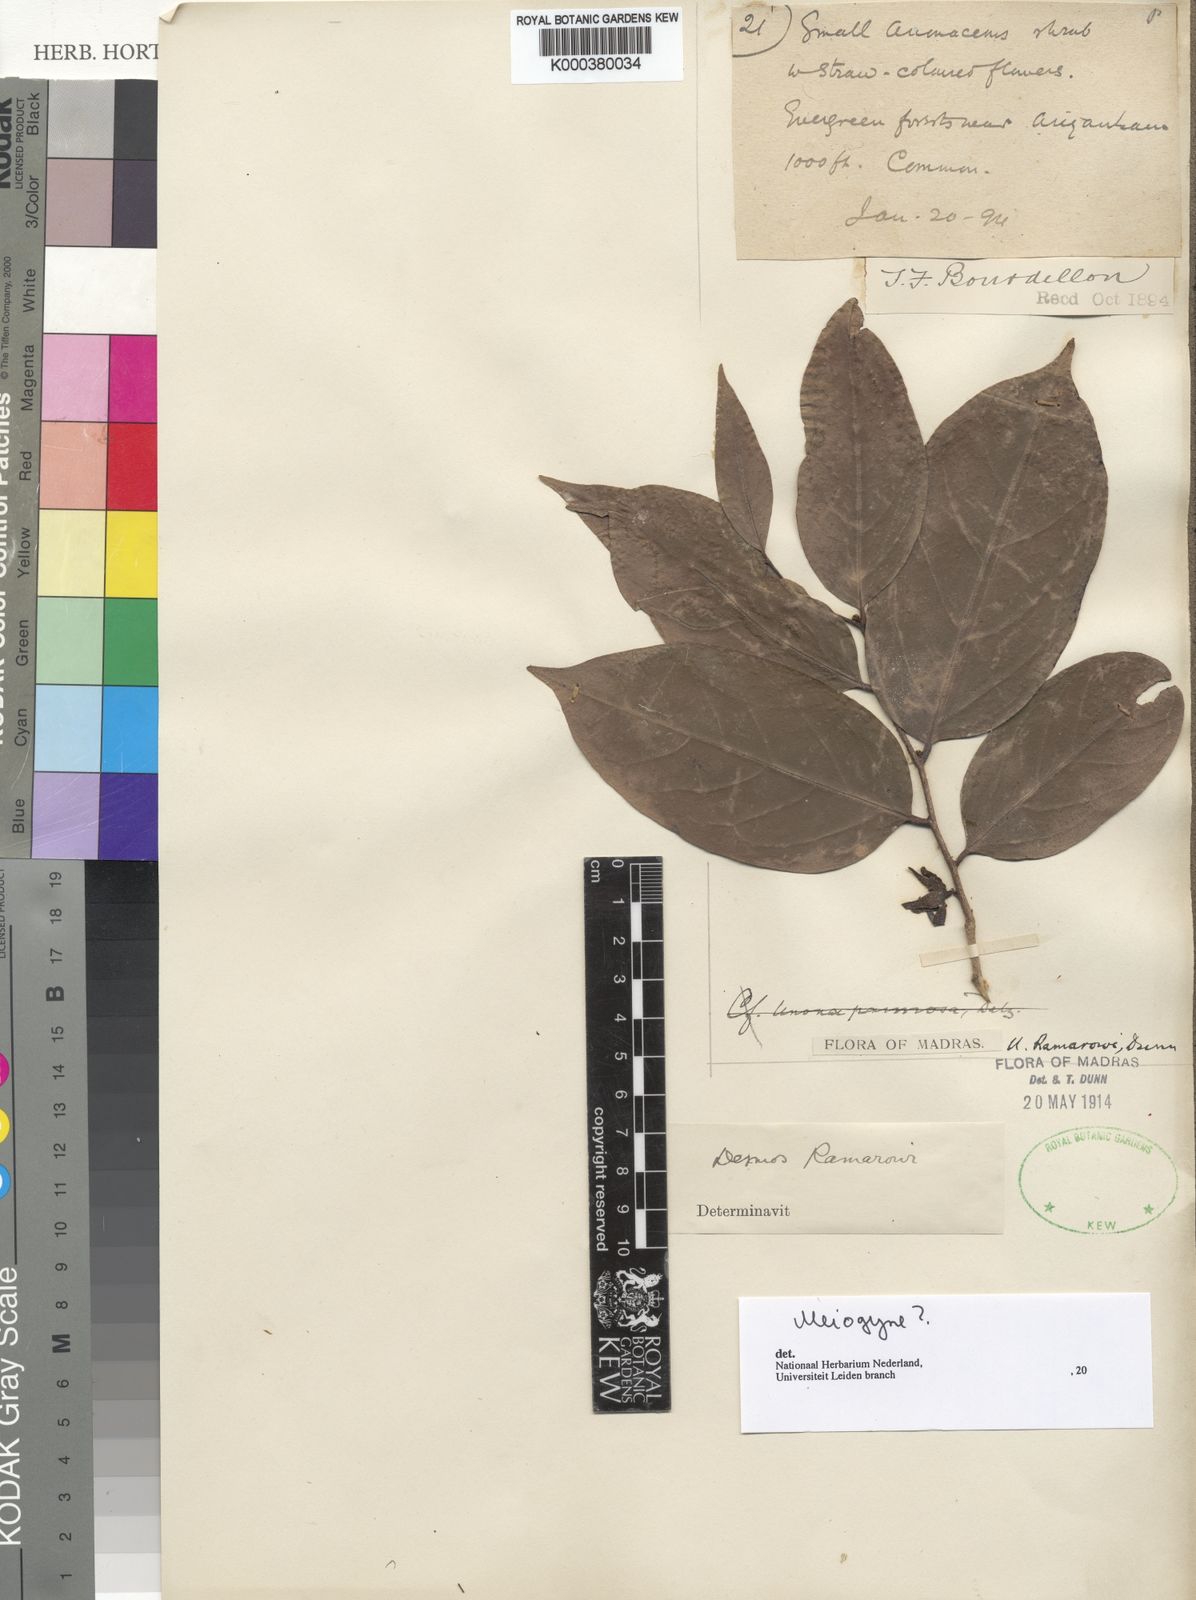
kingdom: Plantae
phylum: Tracheophyta
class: Magnoliopsida
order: Magnoliales
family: Annonaceae
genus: Meiogyne
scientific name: Meiogyne pannosa
